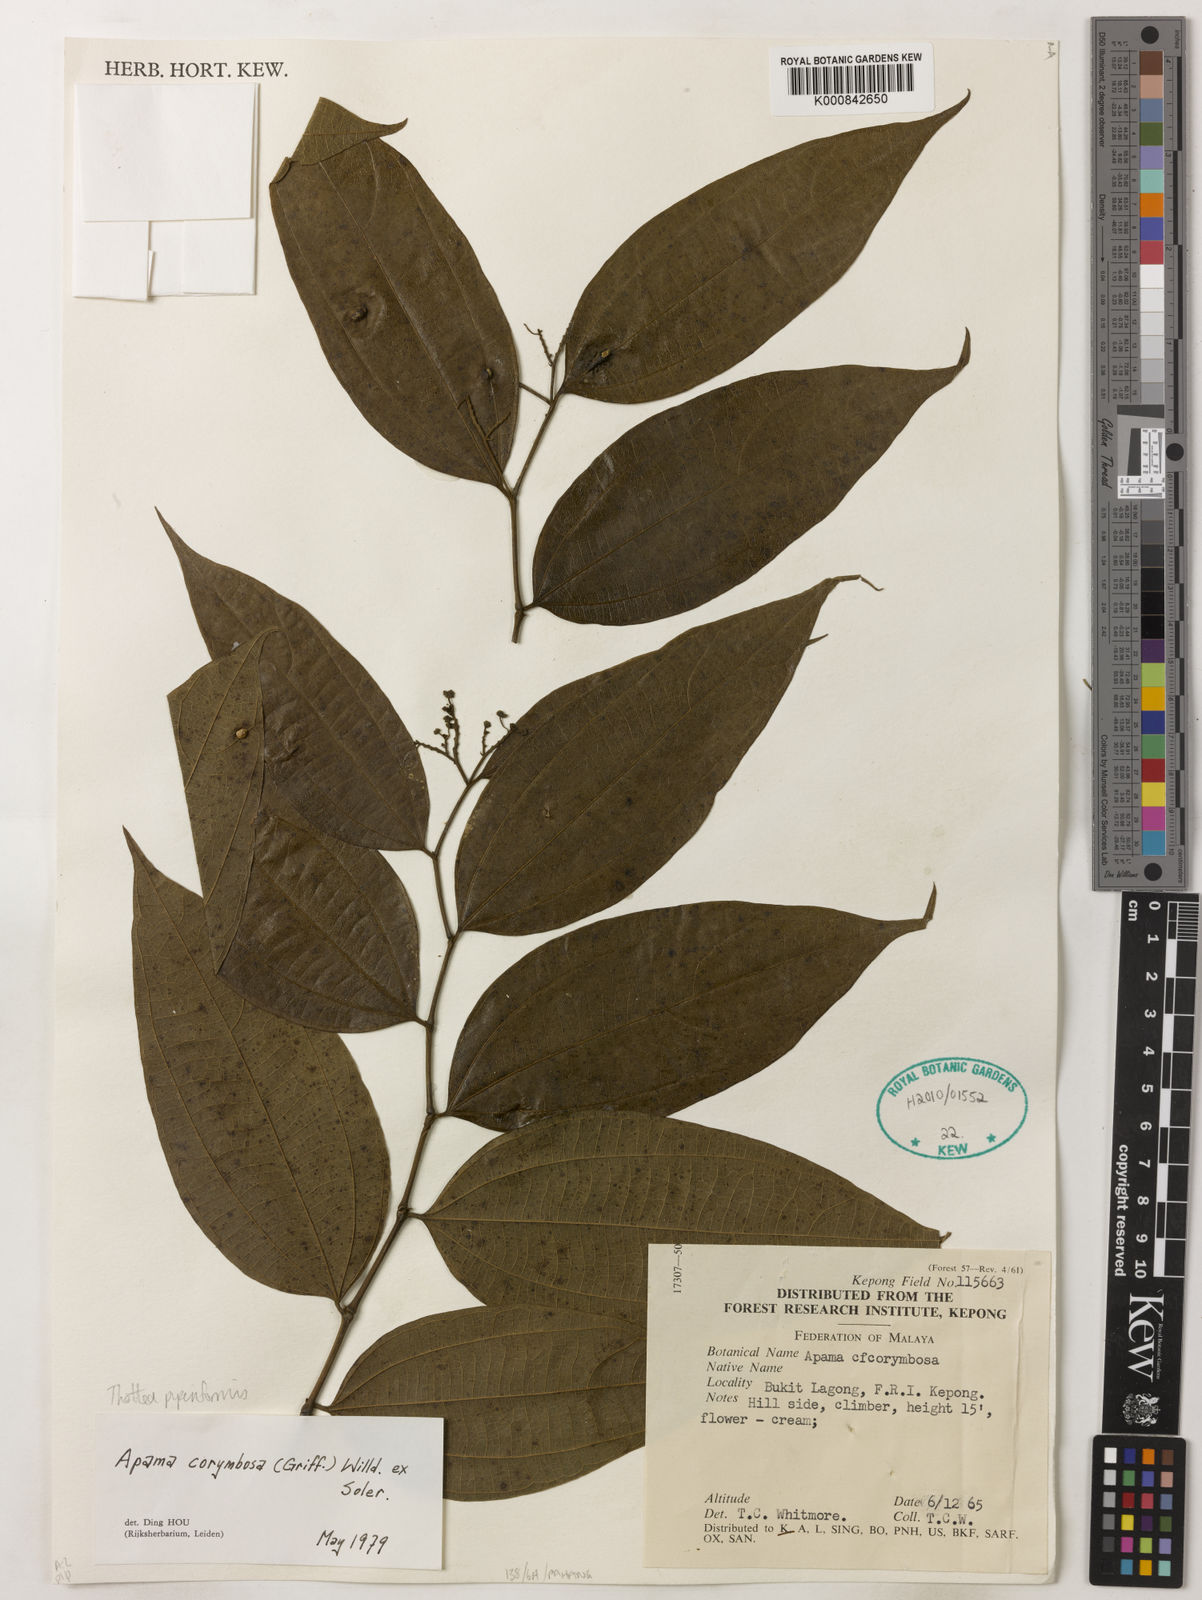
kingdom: Plantae
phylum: Tracheophyta
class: Magnoliopsida
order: Piperales
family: Aristolochiaceae
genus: Thottea
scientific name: Thottea piperiformis
